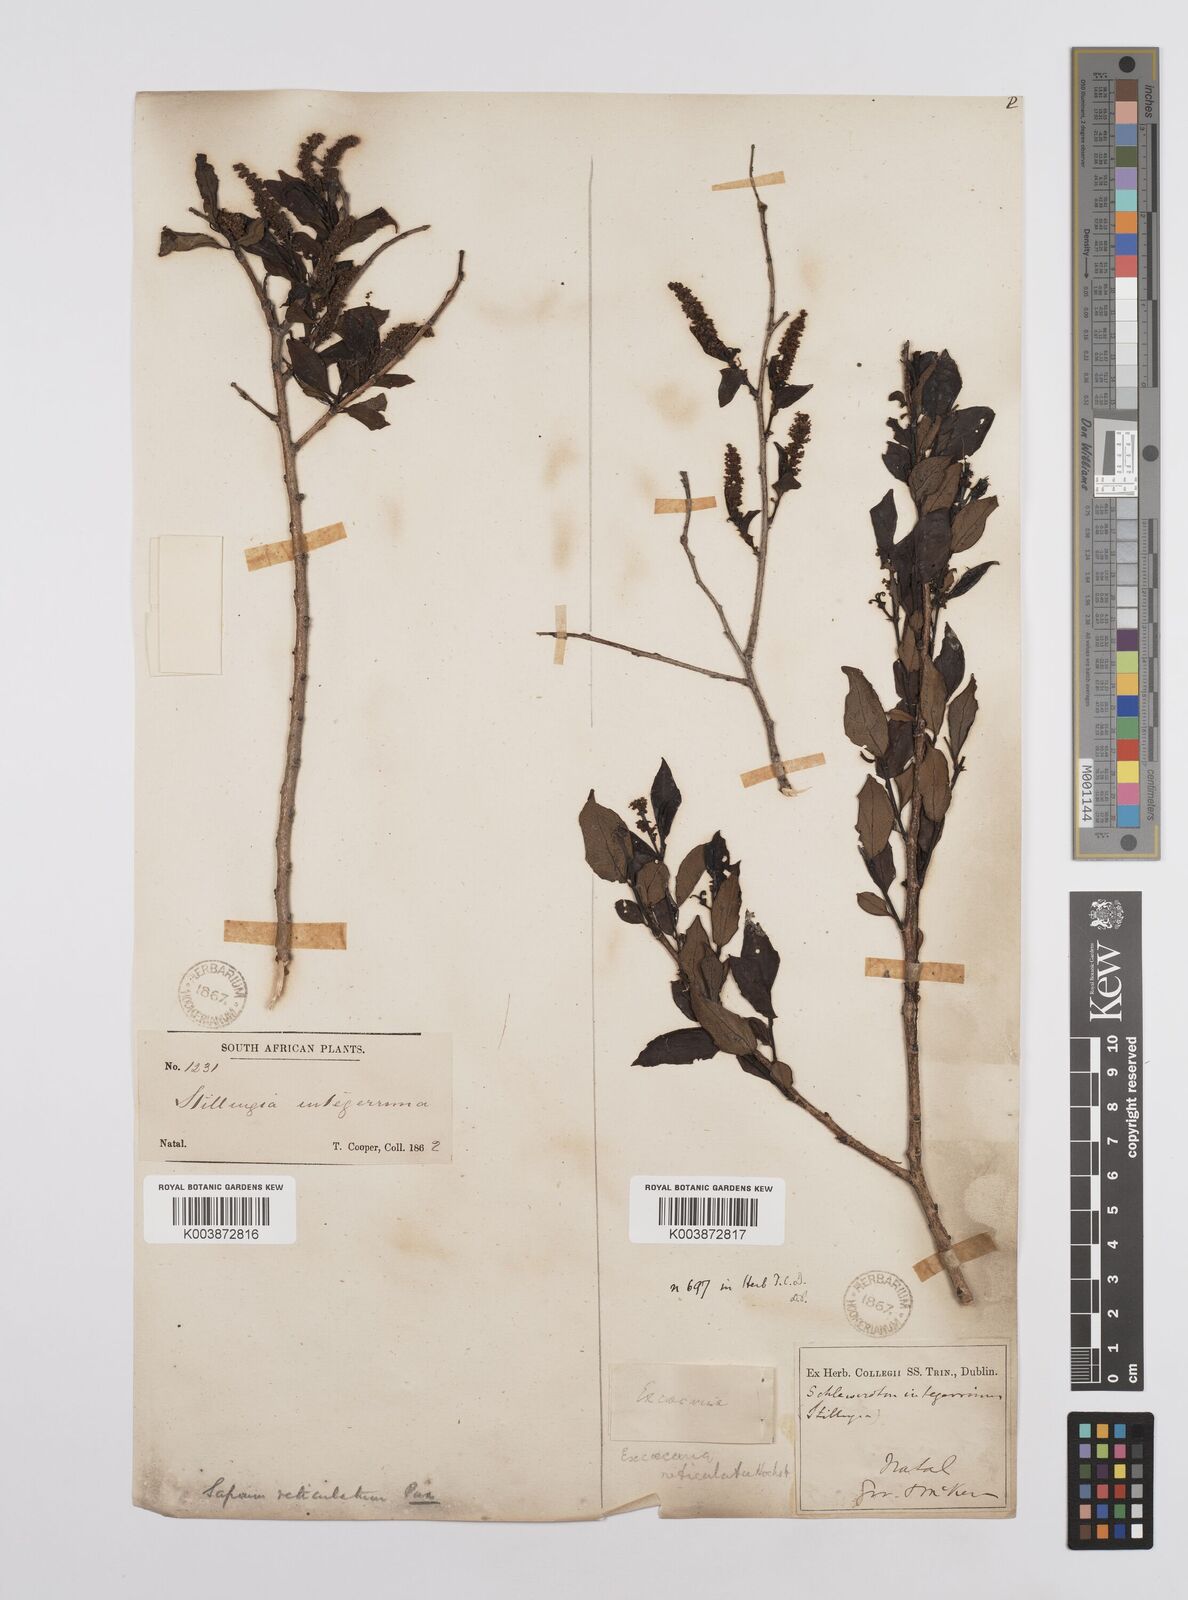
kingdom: Plantae
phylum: Tracheophyta
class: Magnoliopsida
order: Malpighiales
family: Euphorbiaceae
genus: Sclerocroton
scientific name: Sclerocroton integerrimus
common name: Duiker berry
